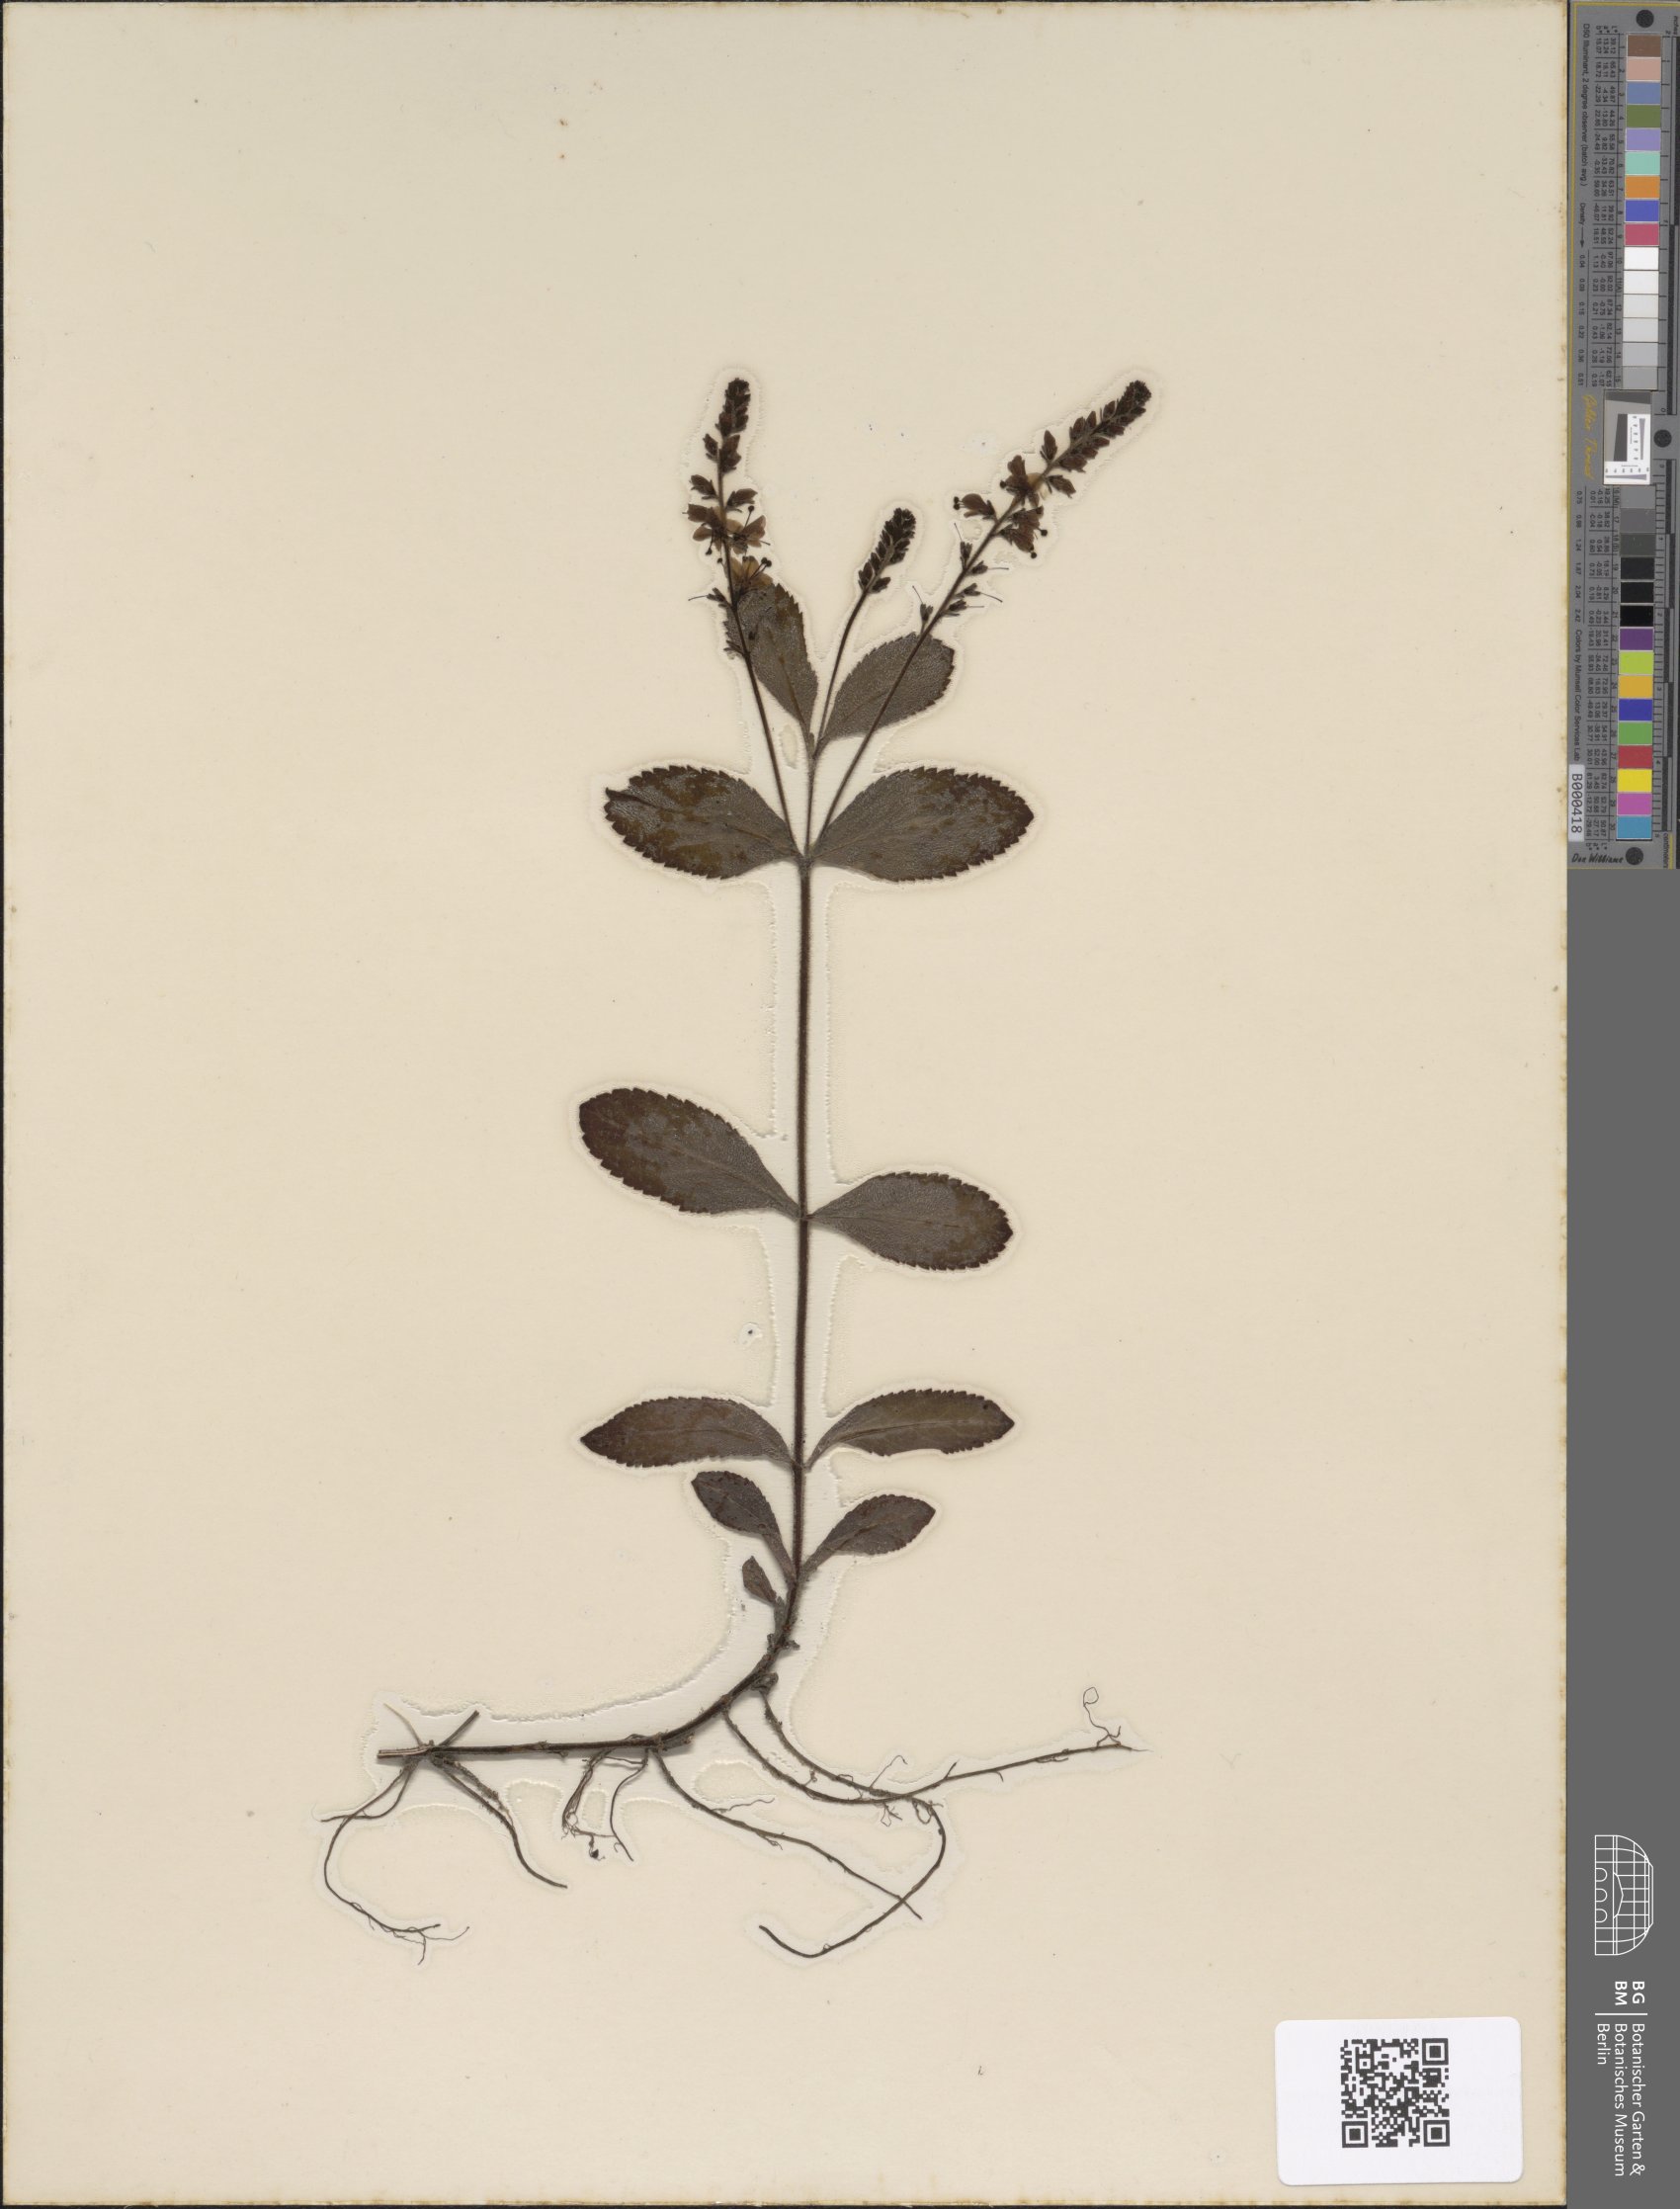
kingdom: Plantae
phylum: Tracheophyta
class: Magnoliopsida
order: Lamiales
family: Plantaginaceae
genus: Veronica
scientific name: Veronica officinalis
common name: Common speedwell
